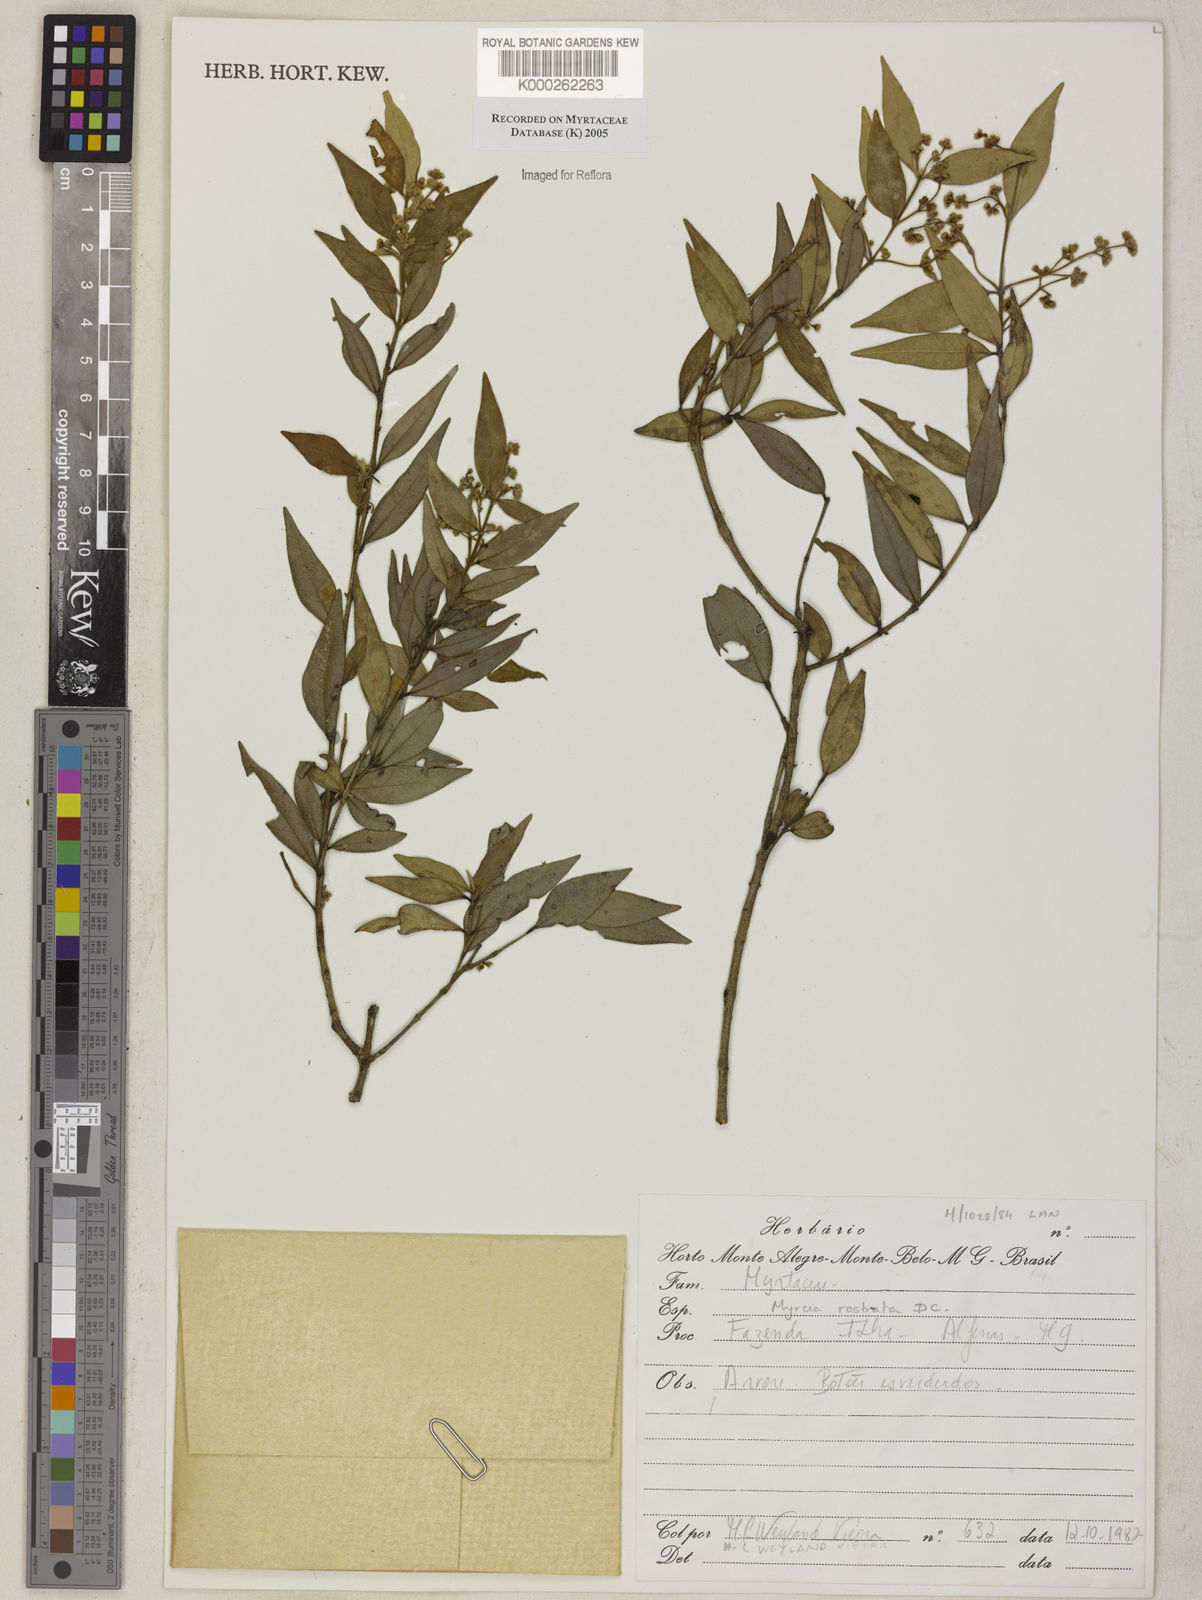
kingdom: Plantae
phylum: Tracheophyta
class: Magnoliopsida
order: Myrtales
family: Myrtaceae
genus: Myrcia
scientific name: Myrcia splendens
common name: Surinam cherry
